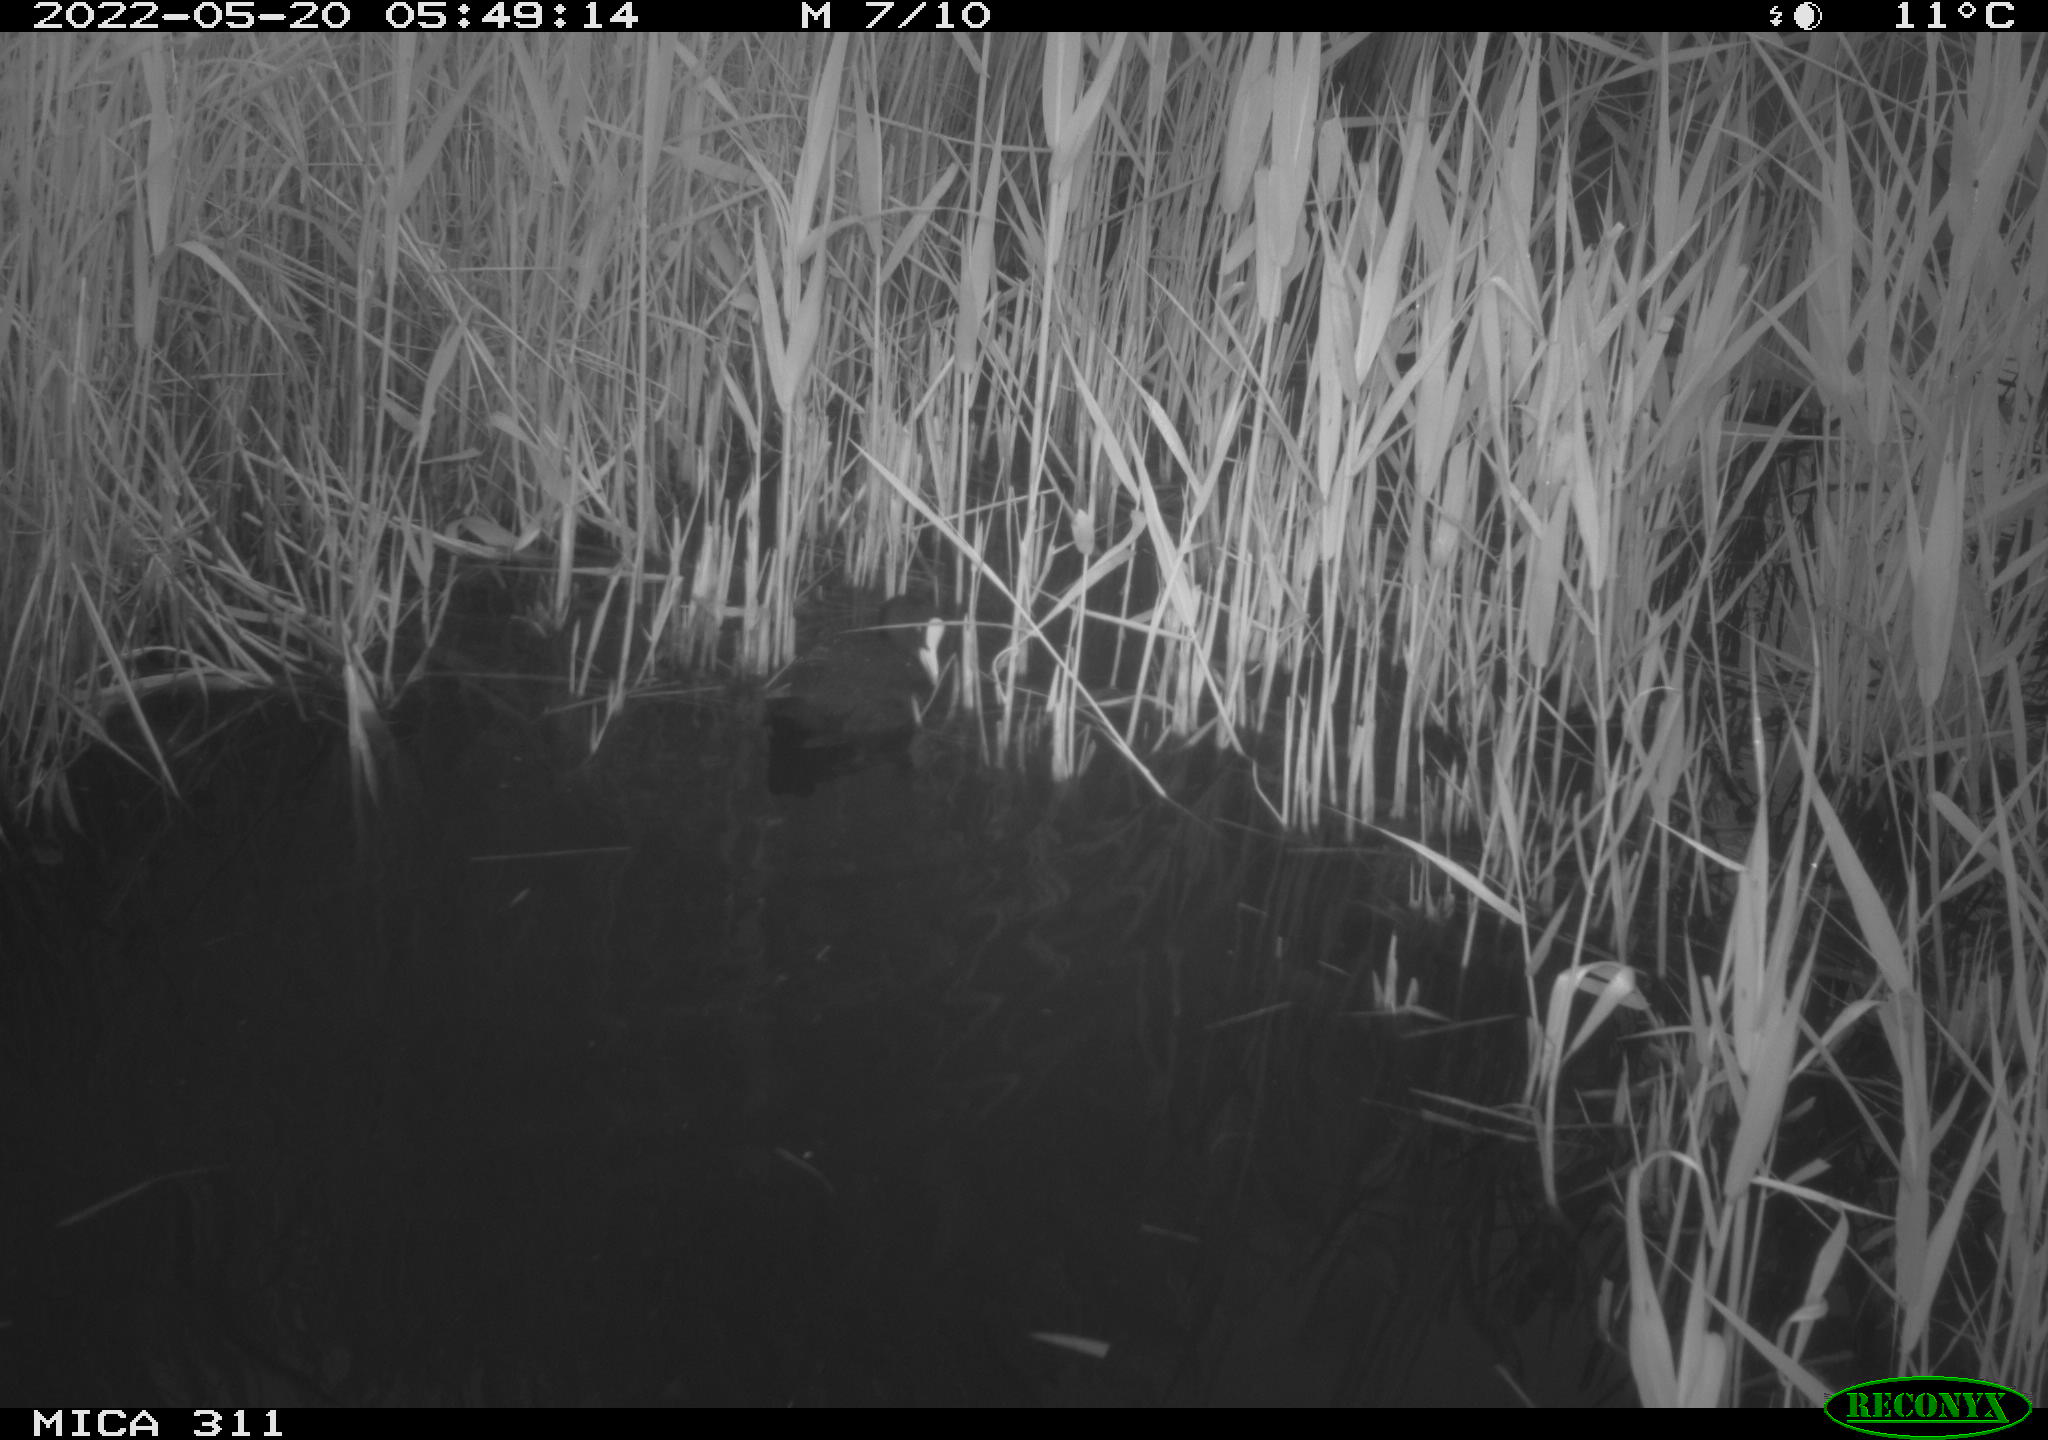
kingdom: Animalia
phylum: Chordata
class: Aves
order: Gruiformes
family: Rallidae
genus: Fulica
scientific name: Fulica atra
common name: Eurasian coot
